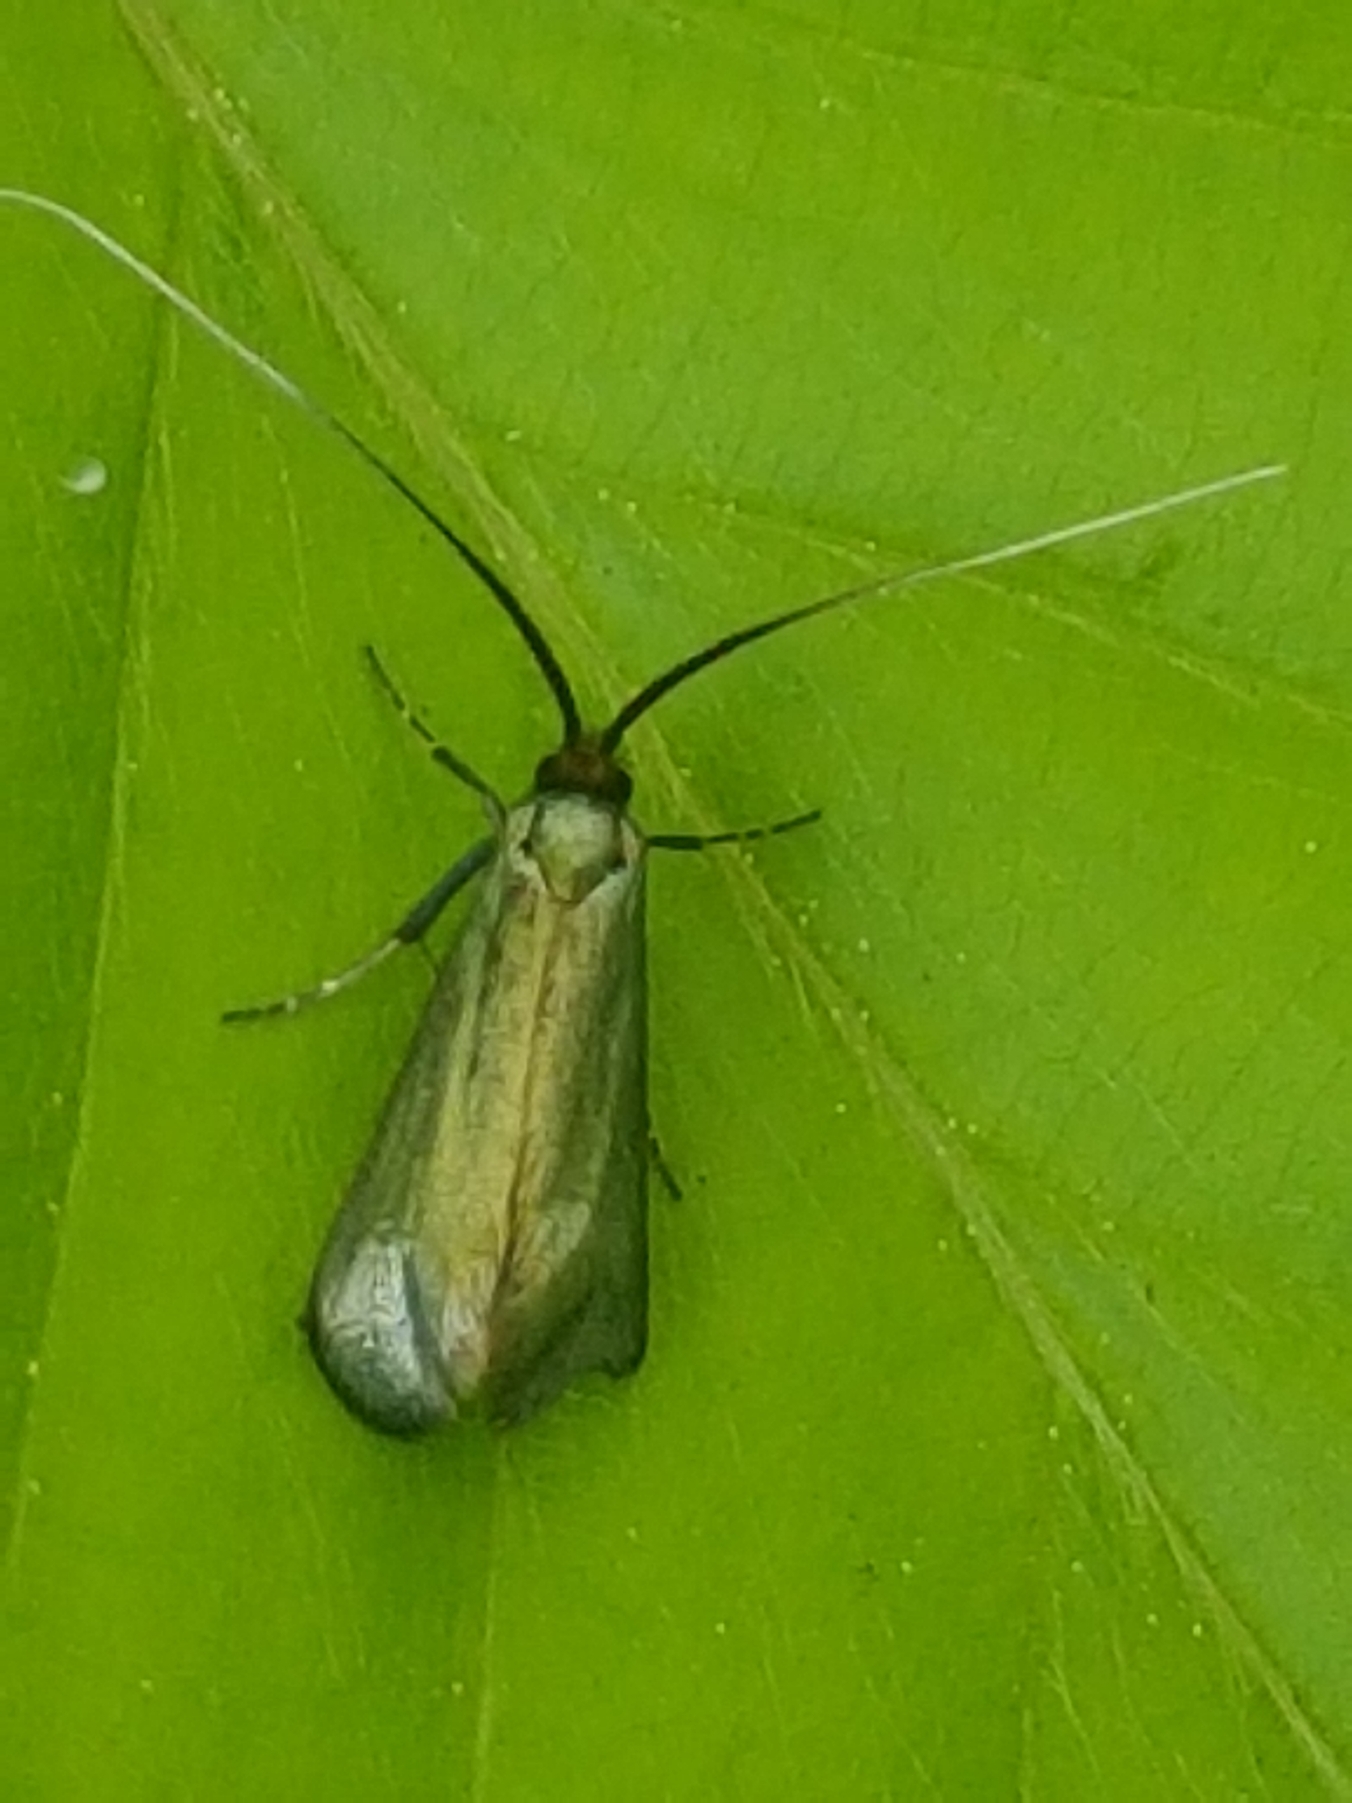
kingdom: Animalia
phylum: Arthropoda
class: Insecta
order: Lepidoptera
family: Adelidae
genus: Adela
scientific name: Adela viridella
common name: Egelanghornsmøl
